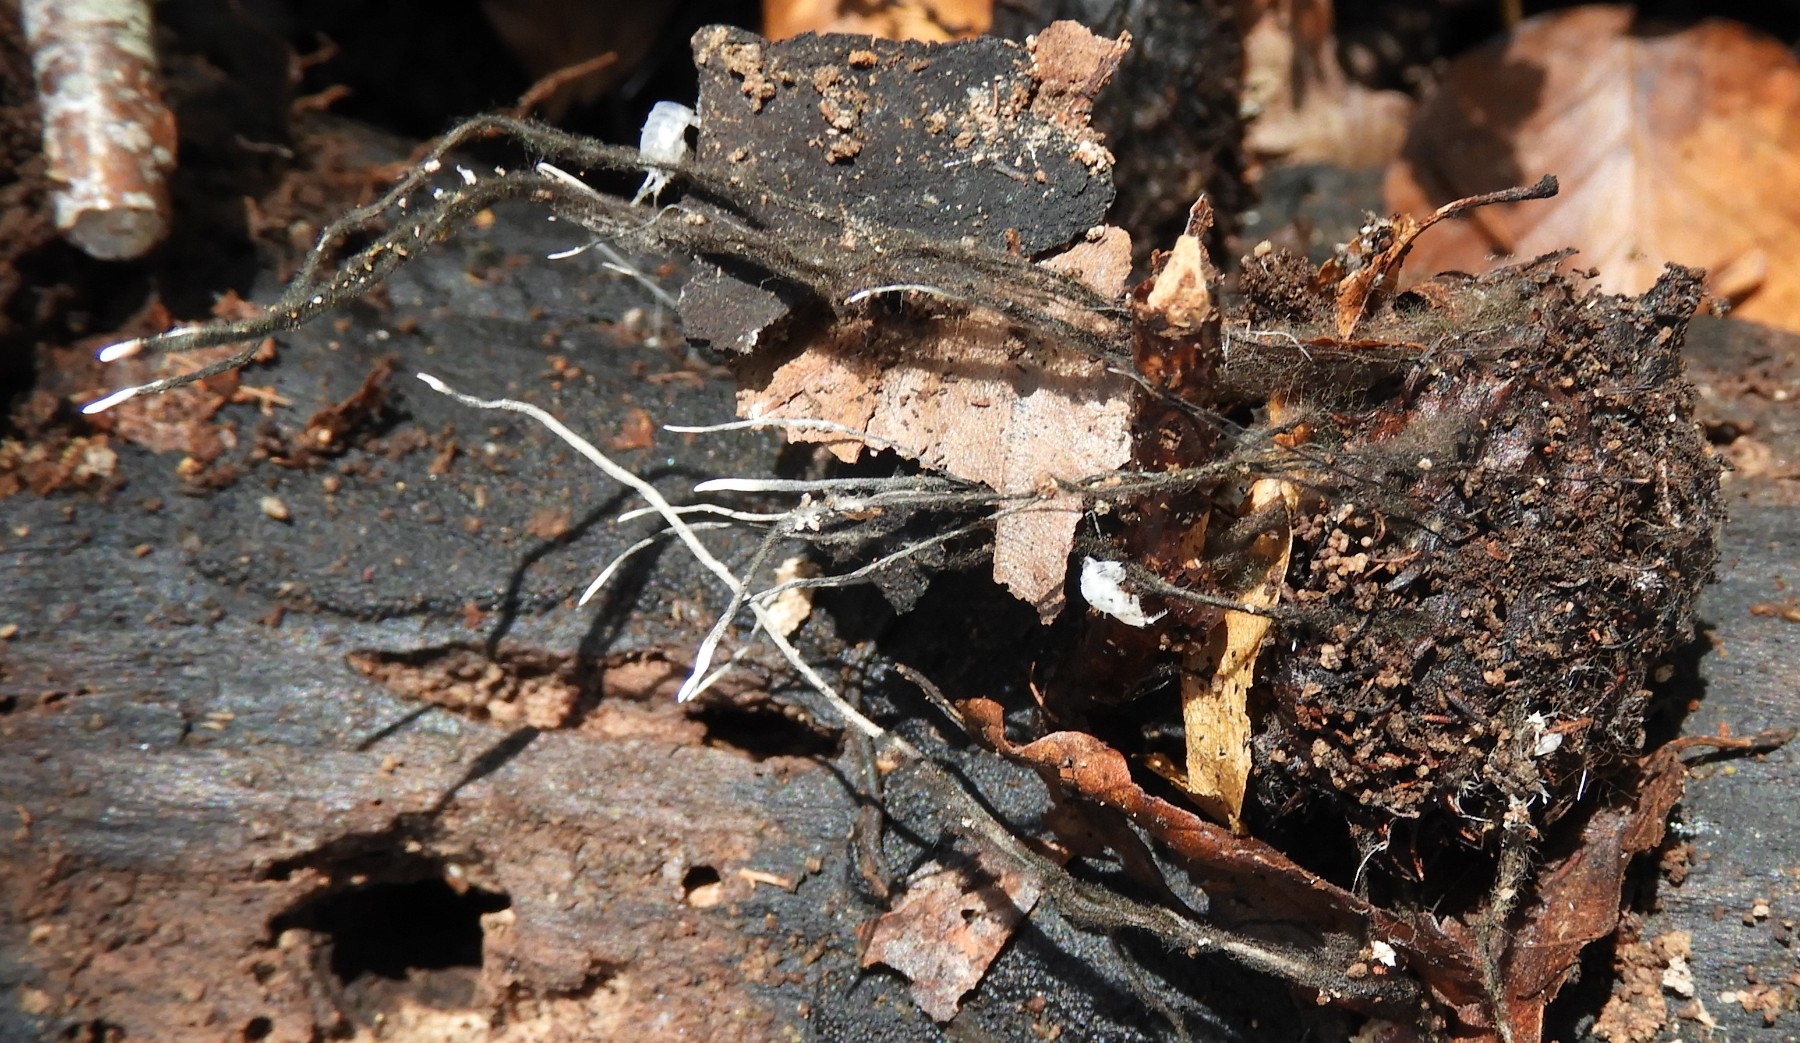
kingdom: Fungi
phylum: Ascomycota
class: Sordariomycetes
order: Xylariales
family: Xylariaceae
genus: Xylaria
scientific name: Xylaria carpophila
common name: bogskål-stødsvamp
